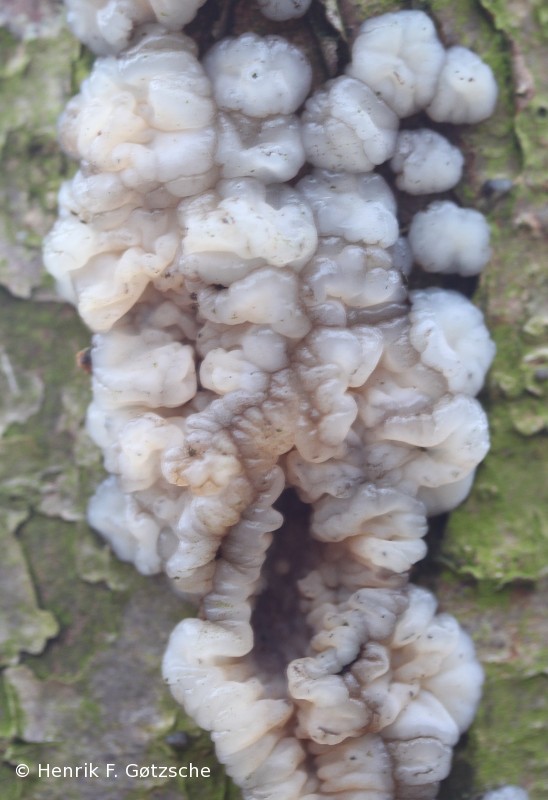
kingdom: Fungi
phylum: Basidiomycota
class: Agaricomycetes
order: Auriculariales
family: Auriculariaceae
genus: Exidia
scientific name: Exidia thuretiana
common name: hvidlig bævretop
